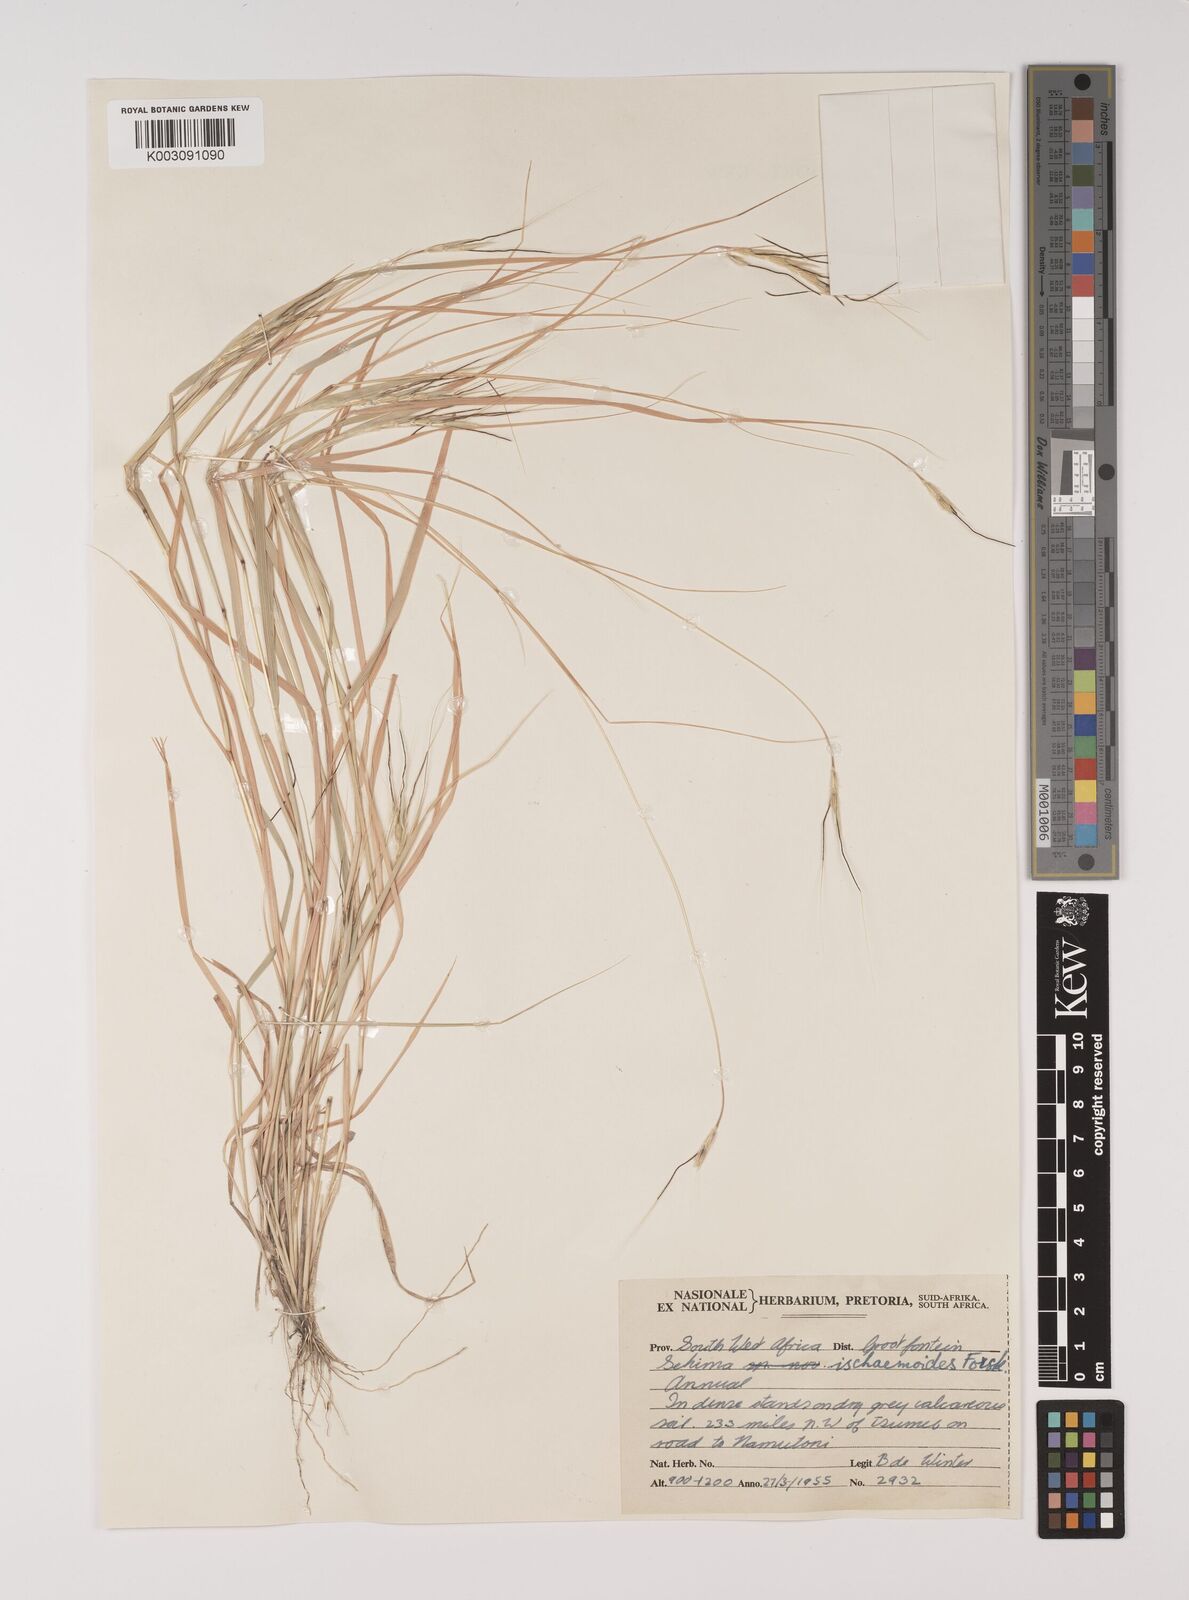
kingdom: Plantae
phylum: Tracheophyta
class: Liliopsida
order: Poales
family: Poaceae
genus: Sehima
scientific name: Sehima ischaemoides
